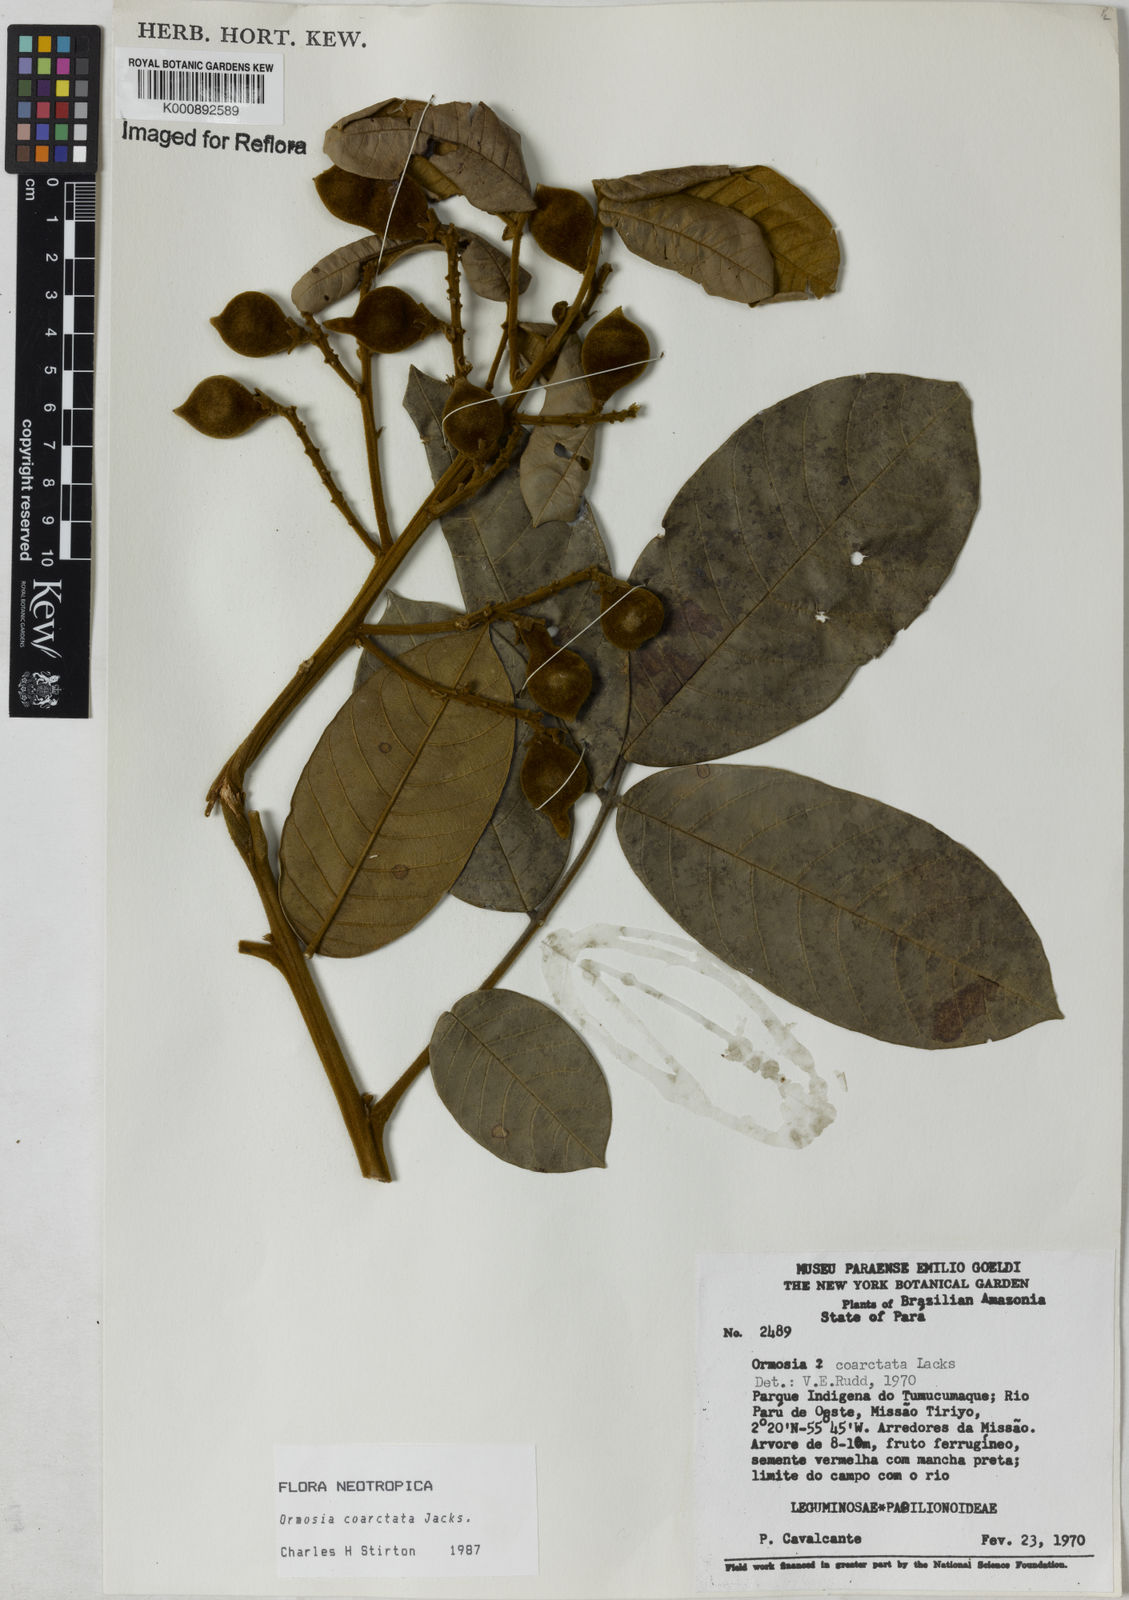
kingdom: Plantae
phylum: Tracheophyta
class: Magnoliopsida
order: Fabales
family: Fabaceae
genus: Ormosia
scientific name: Ormosia coarctata
